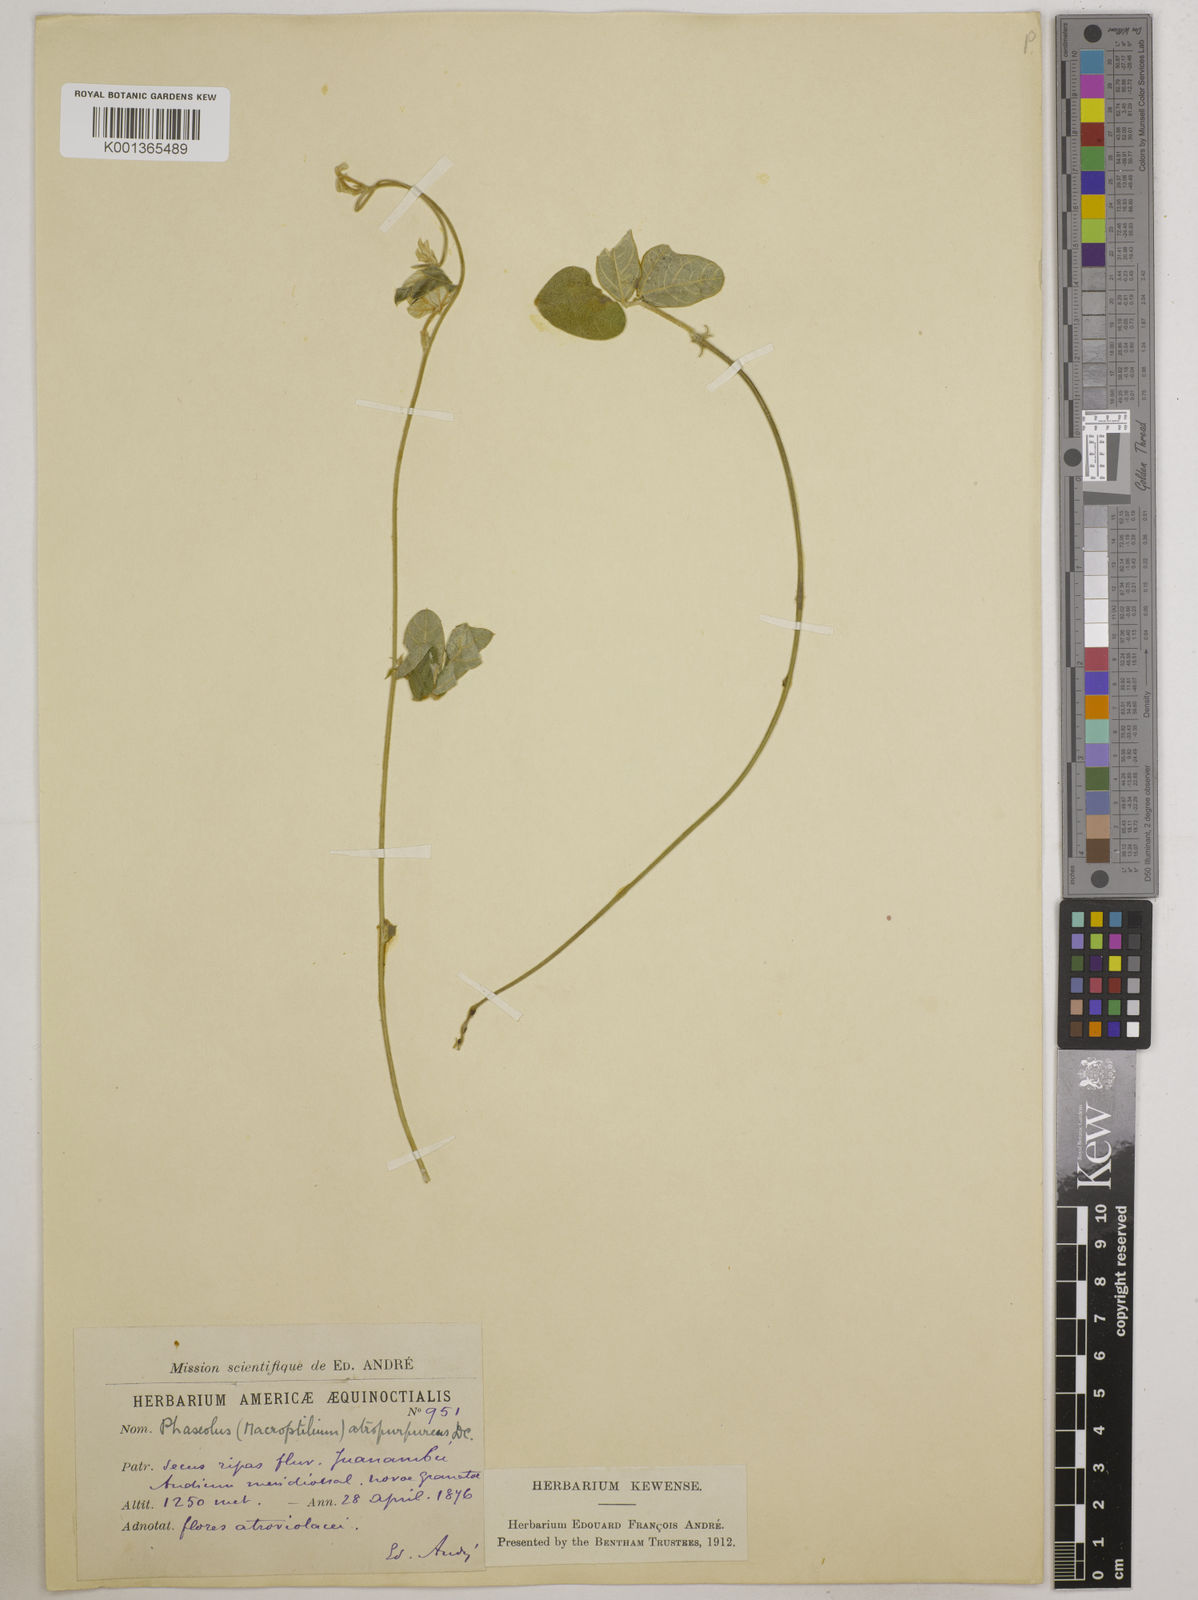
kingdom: Plantae
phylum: Tracheophyta
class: Magnoliopsida
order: Fabales
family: Fabaceae
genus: Macroptilium
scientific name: Macroptilium atropurpureum
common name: Purple bushbean
